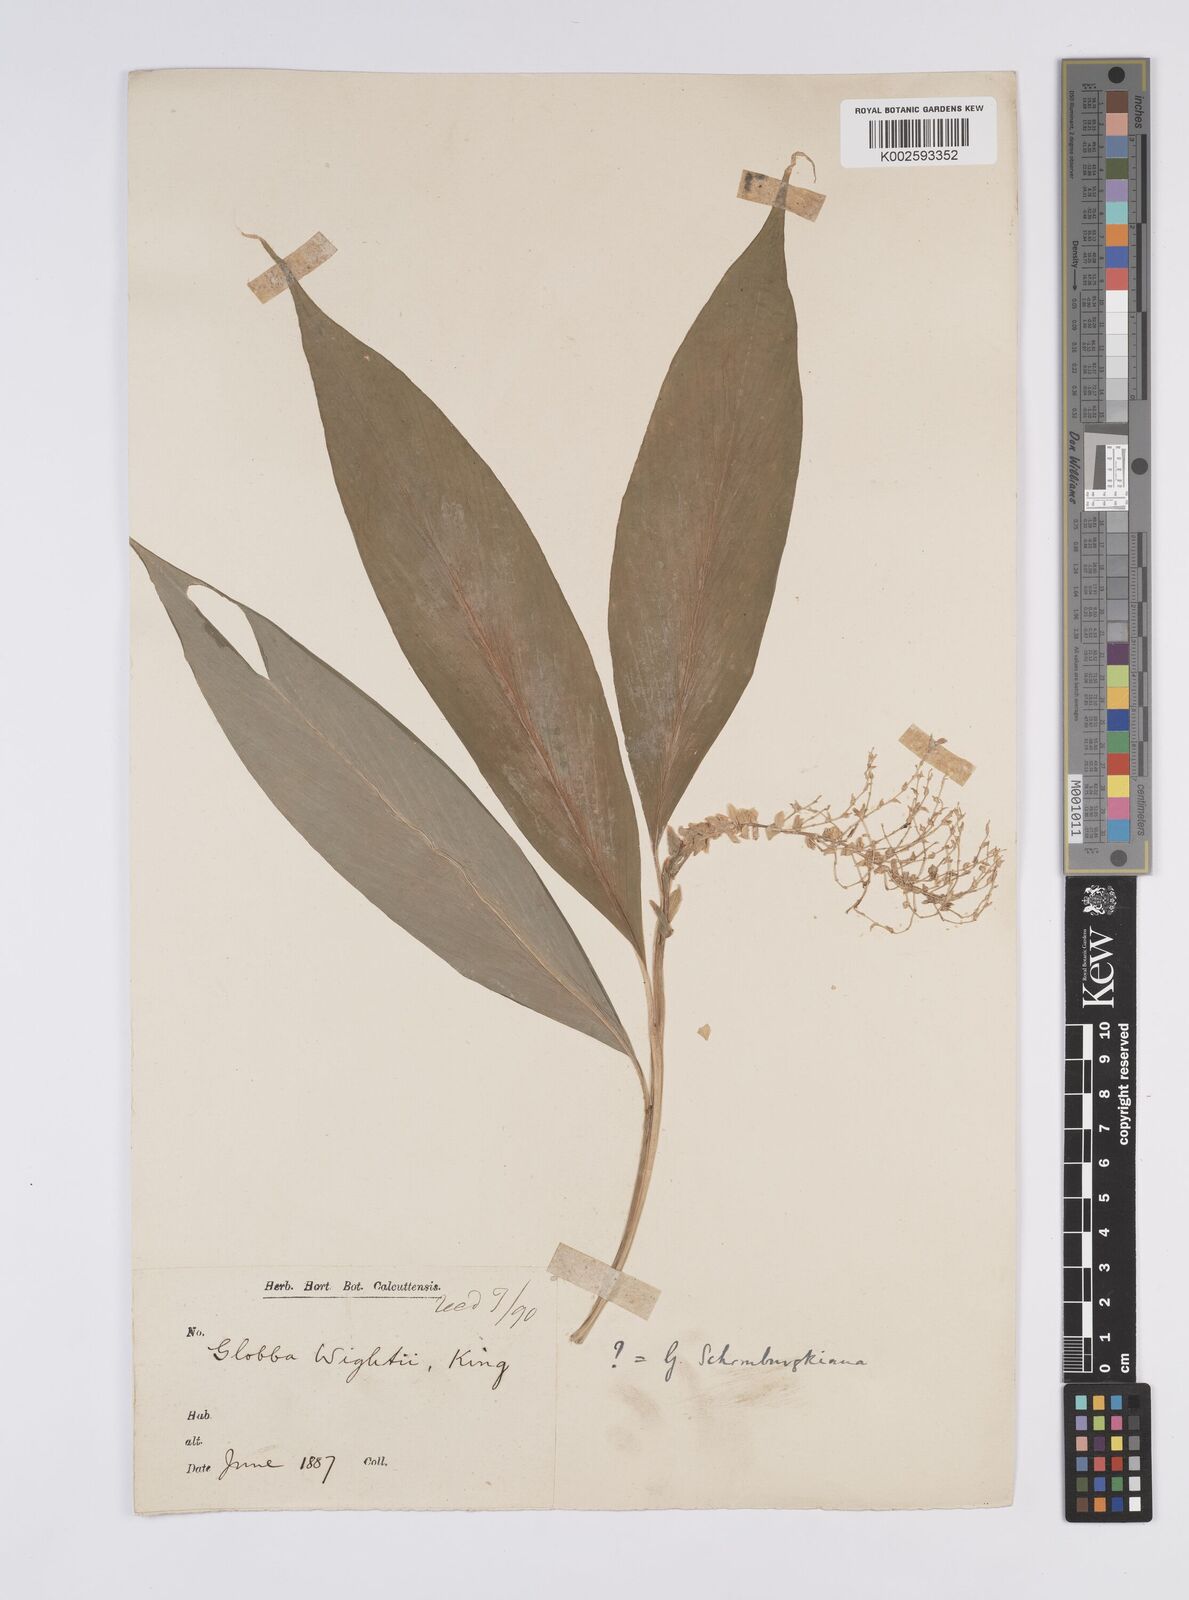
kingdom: Plantae
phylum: Tracheophyta
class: Liliopsida
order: Zingiberales
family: Zingiberaceae
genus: Globba
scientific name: Globba schomburgkii
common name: Dancing girl ginger
